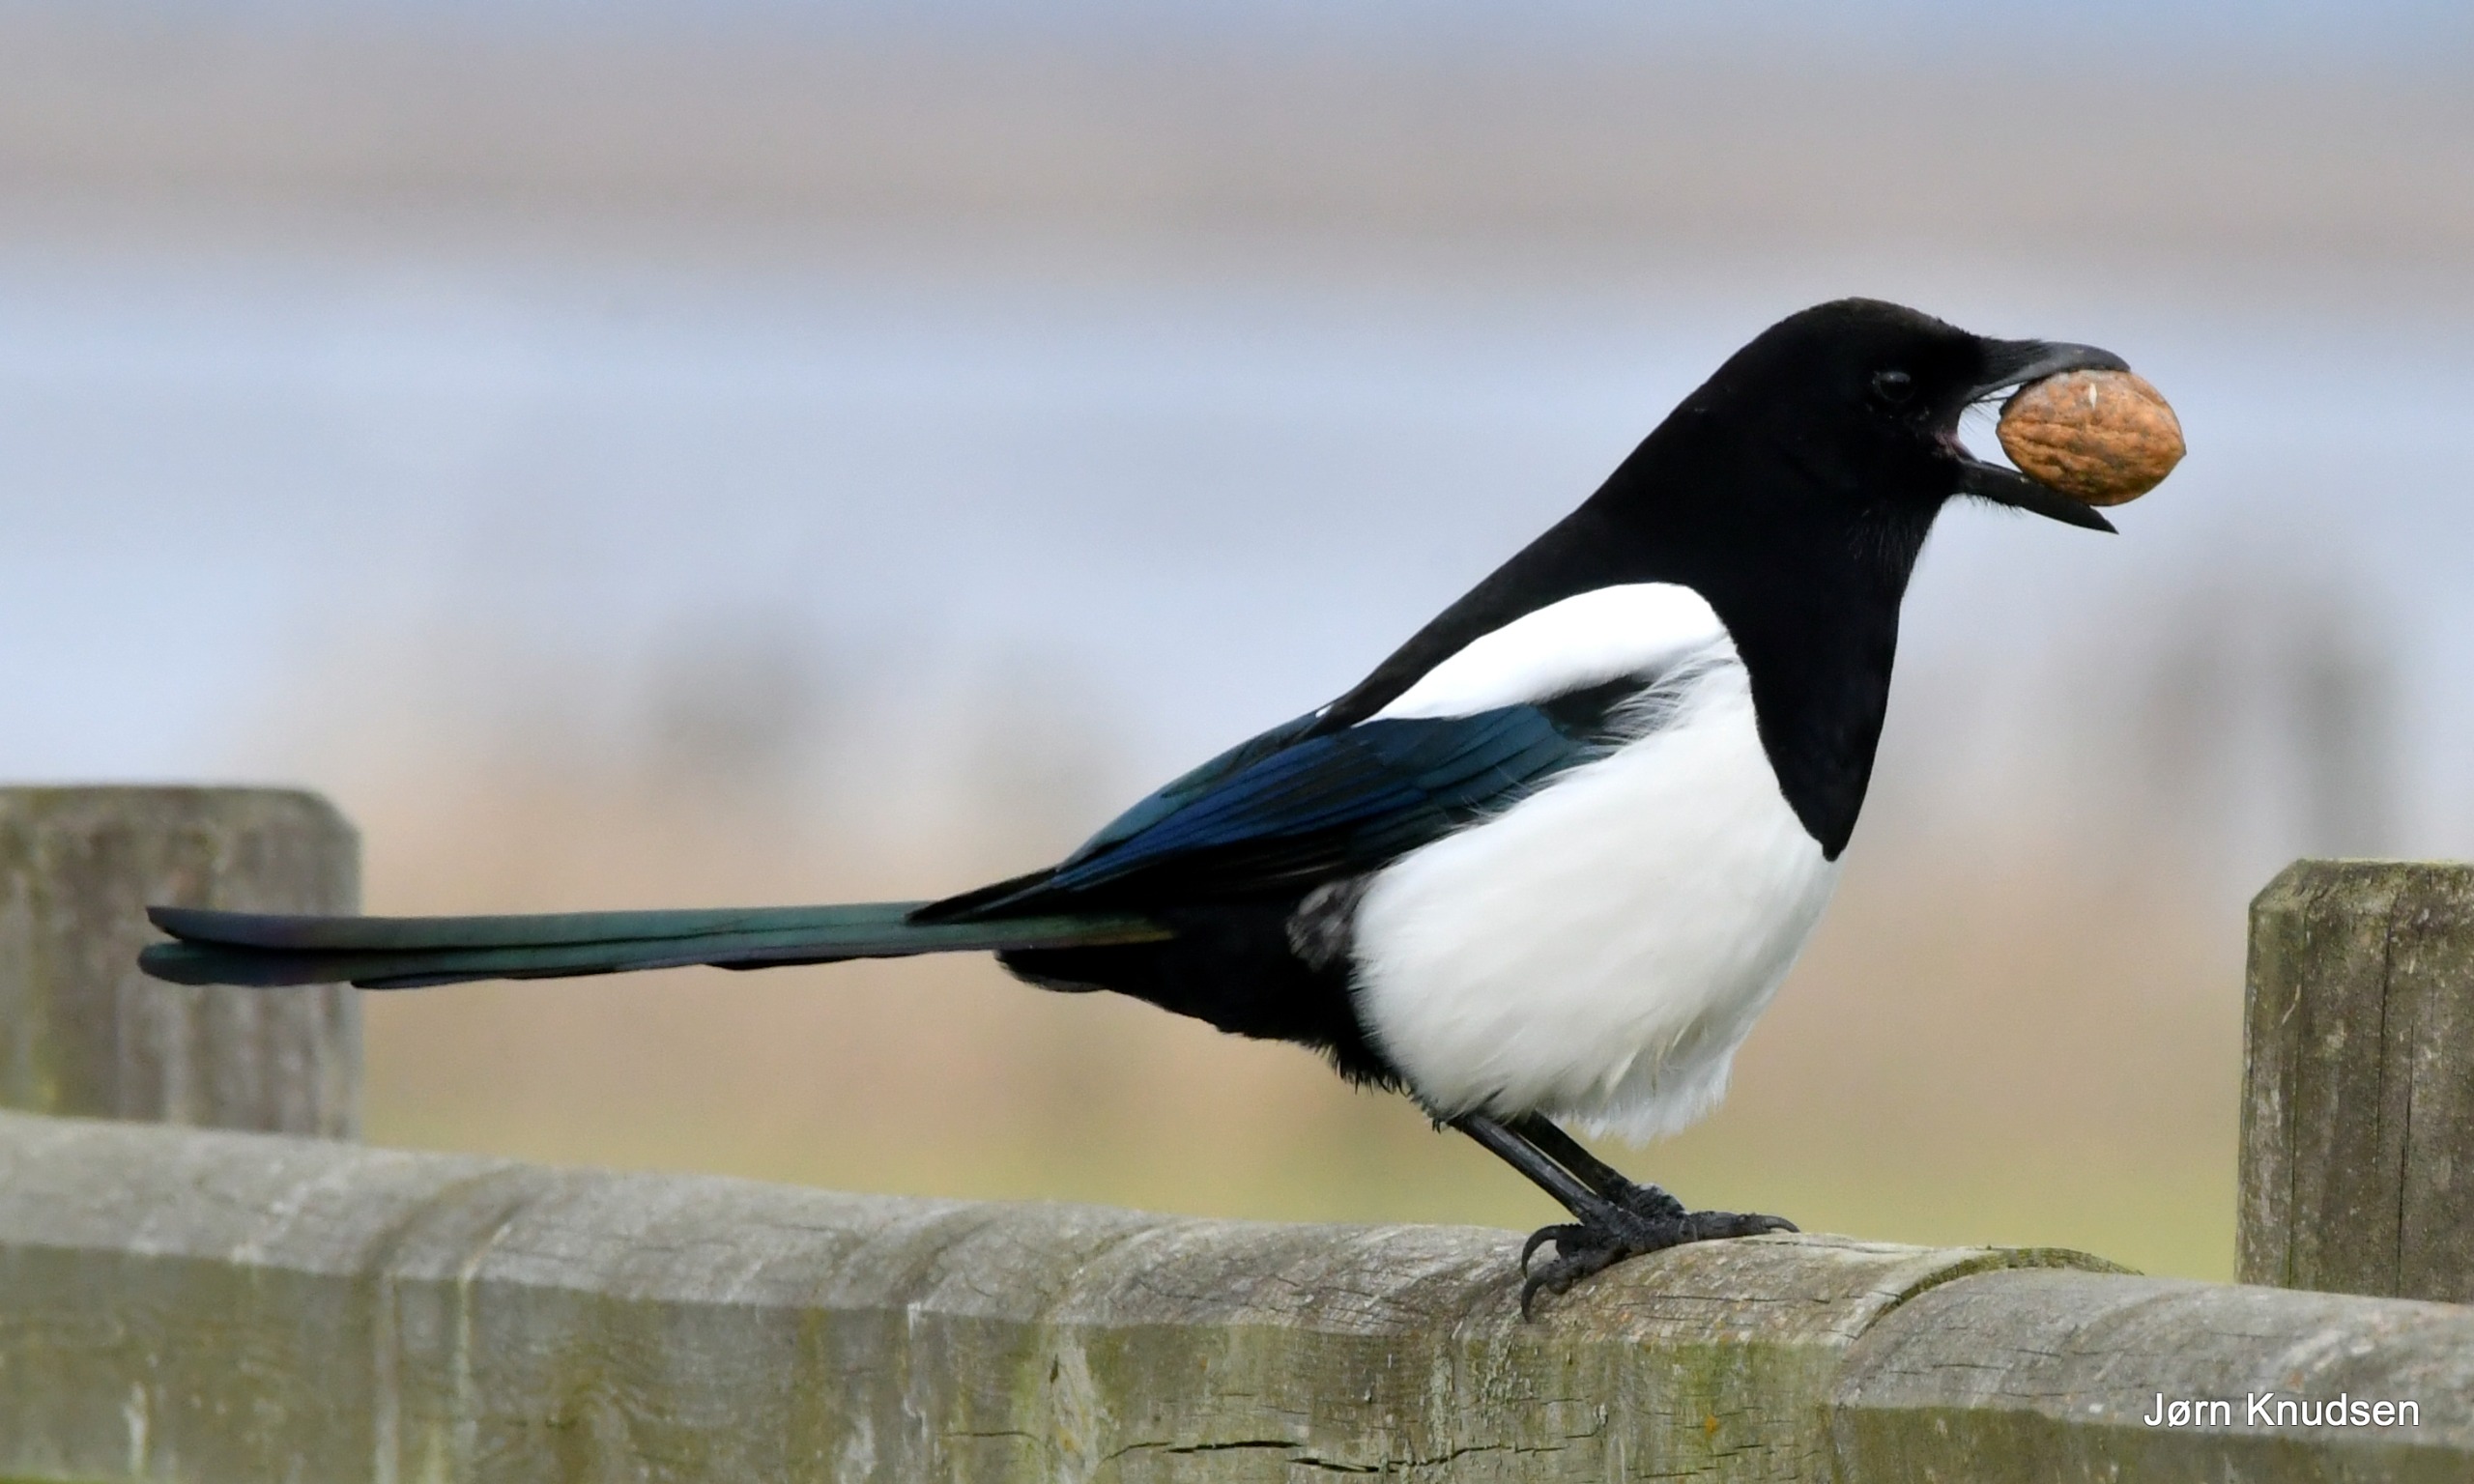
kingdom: Animalia
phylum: Chordata
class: Aves
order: Passeriformes
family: Corvidae
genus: Pica
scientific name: Pica pica
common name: Husskade
